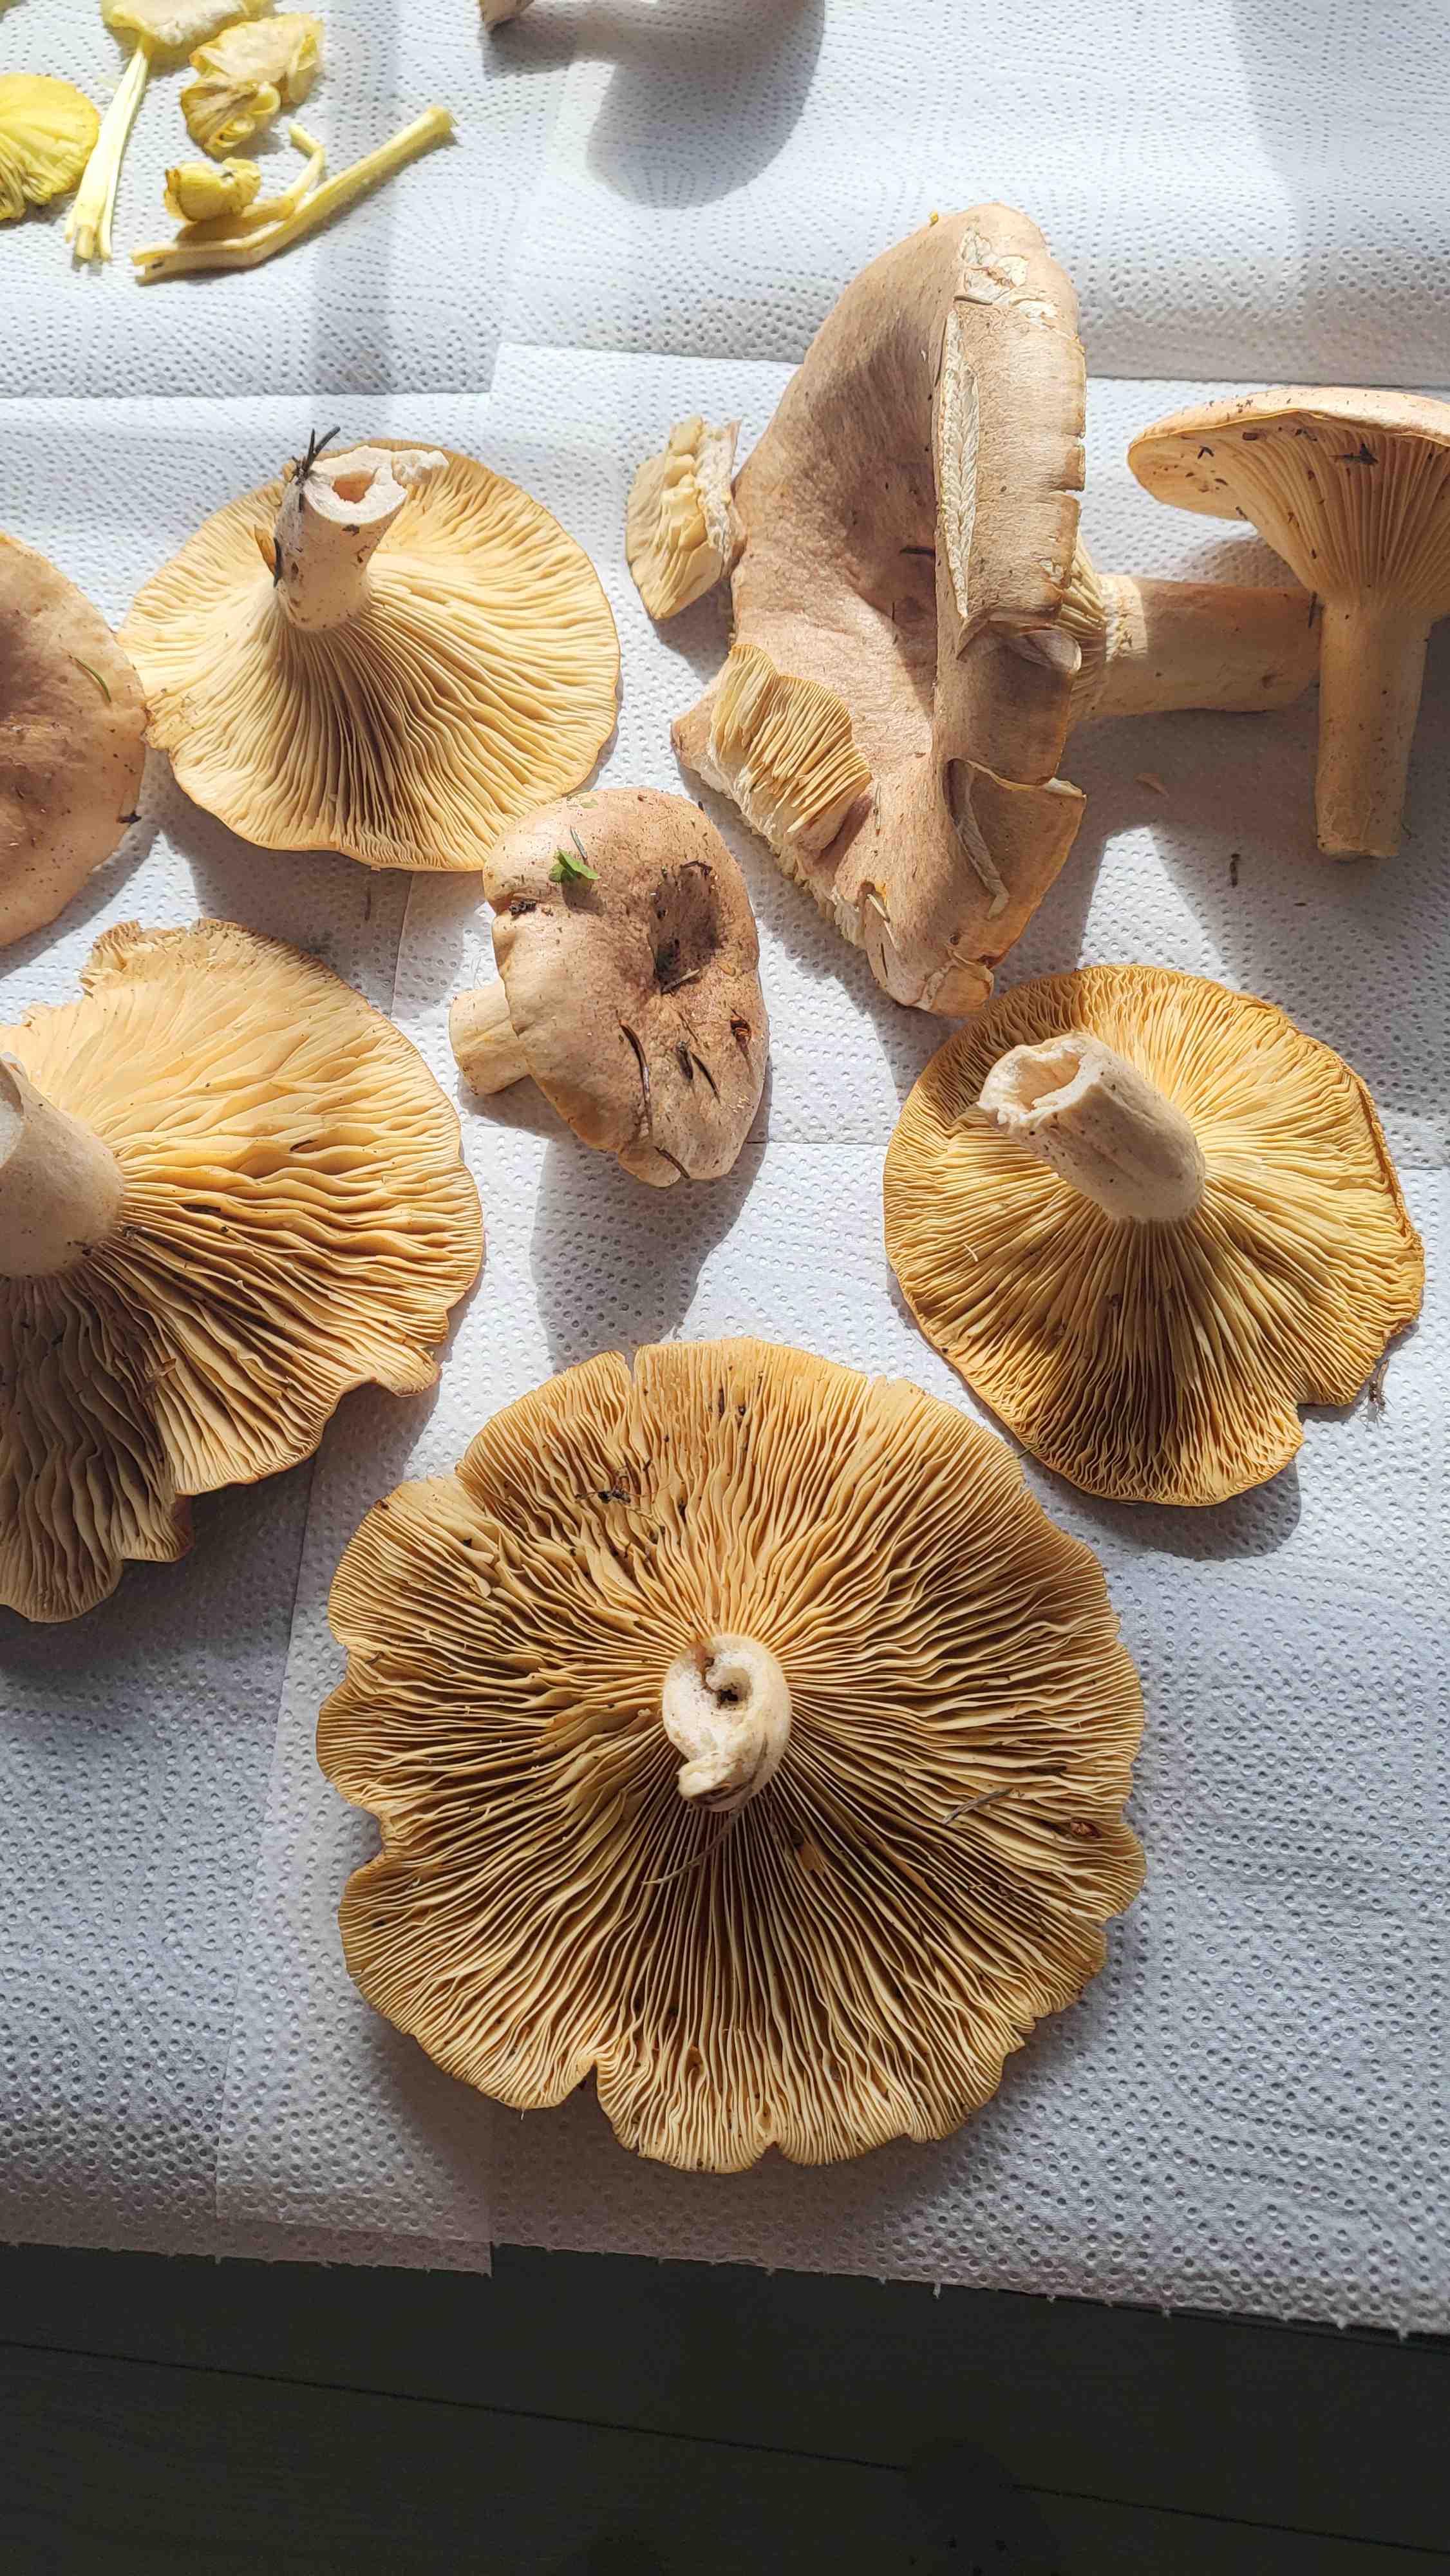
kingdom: Fungi
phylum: Basidiomycota
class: Agaricomycetes
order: Russulales
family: Russulaceae
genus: Lactarius
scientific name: Lactarius helvus
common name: mose-mælkehat
